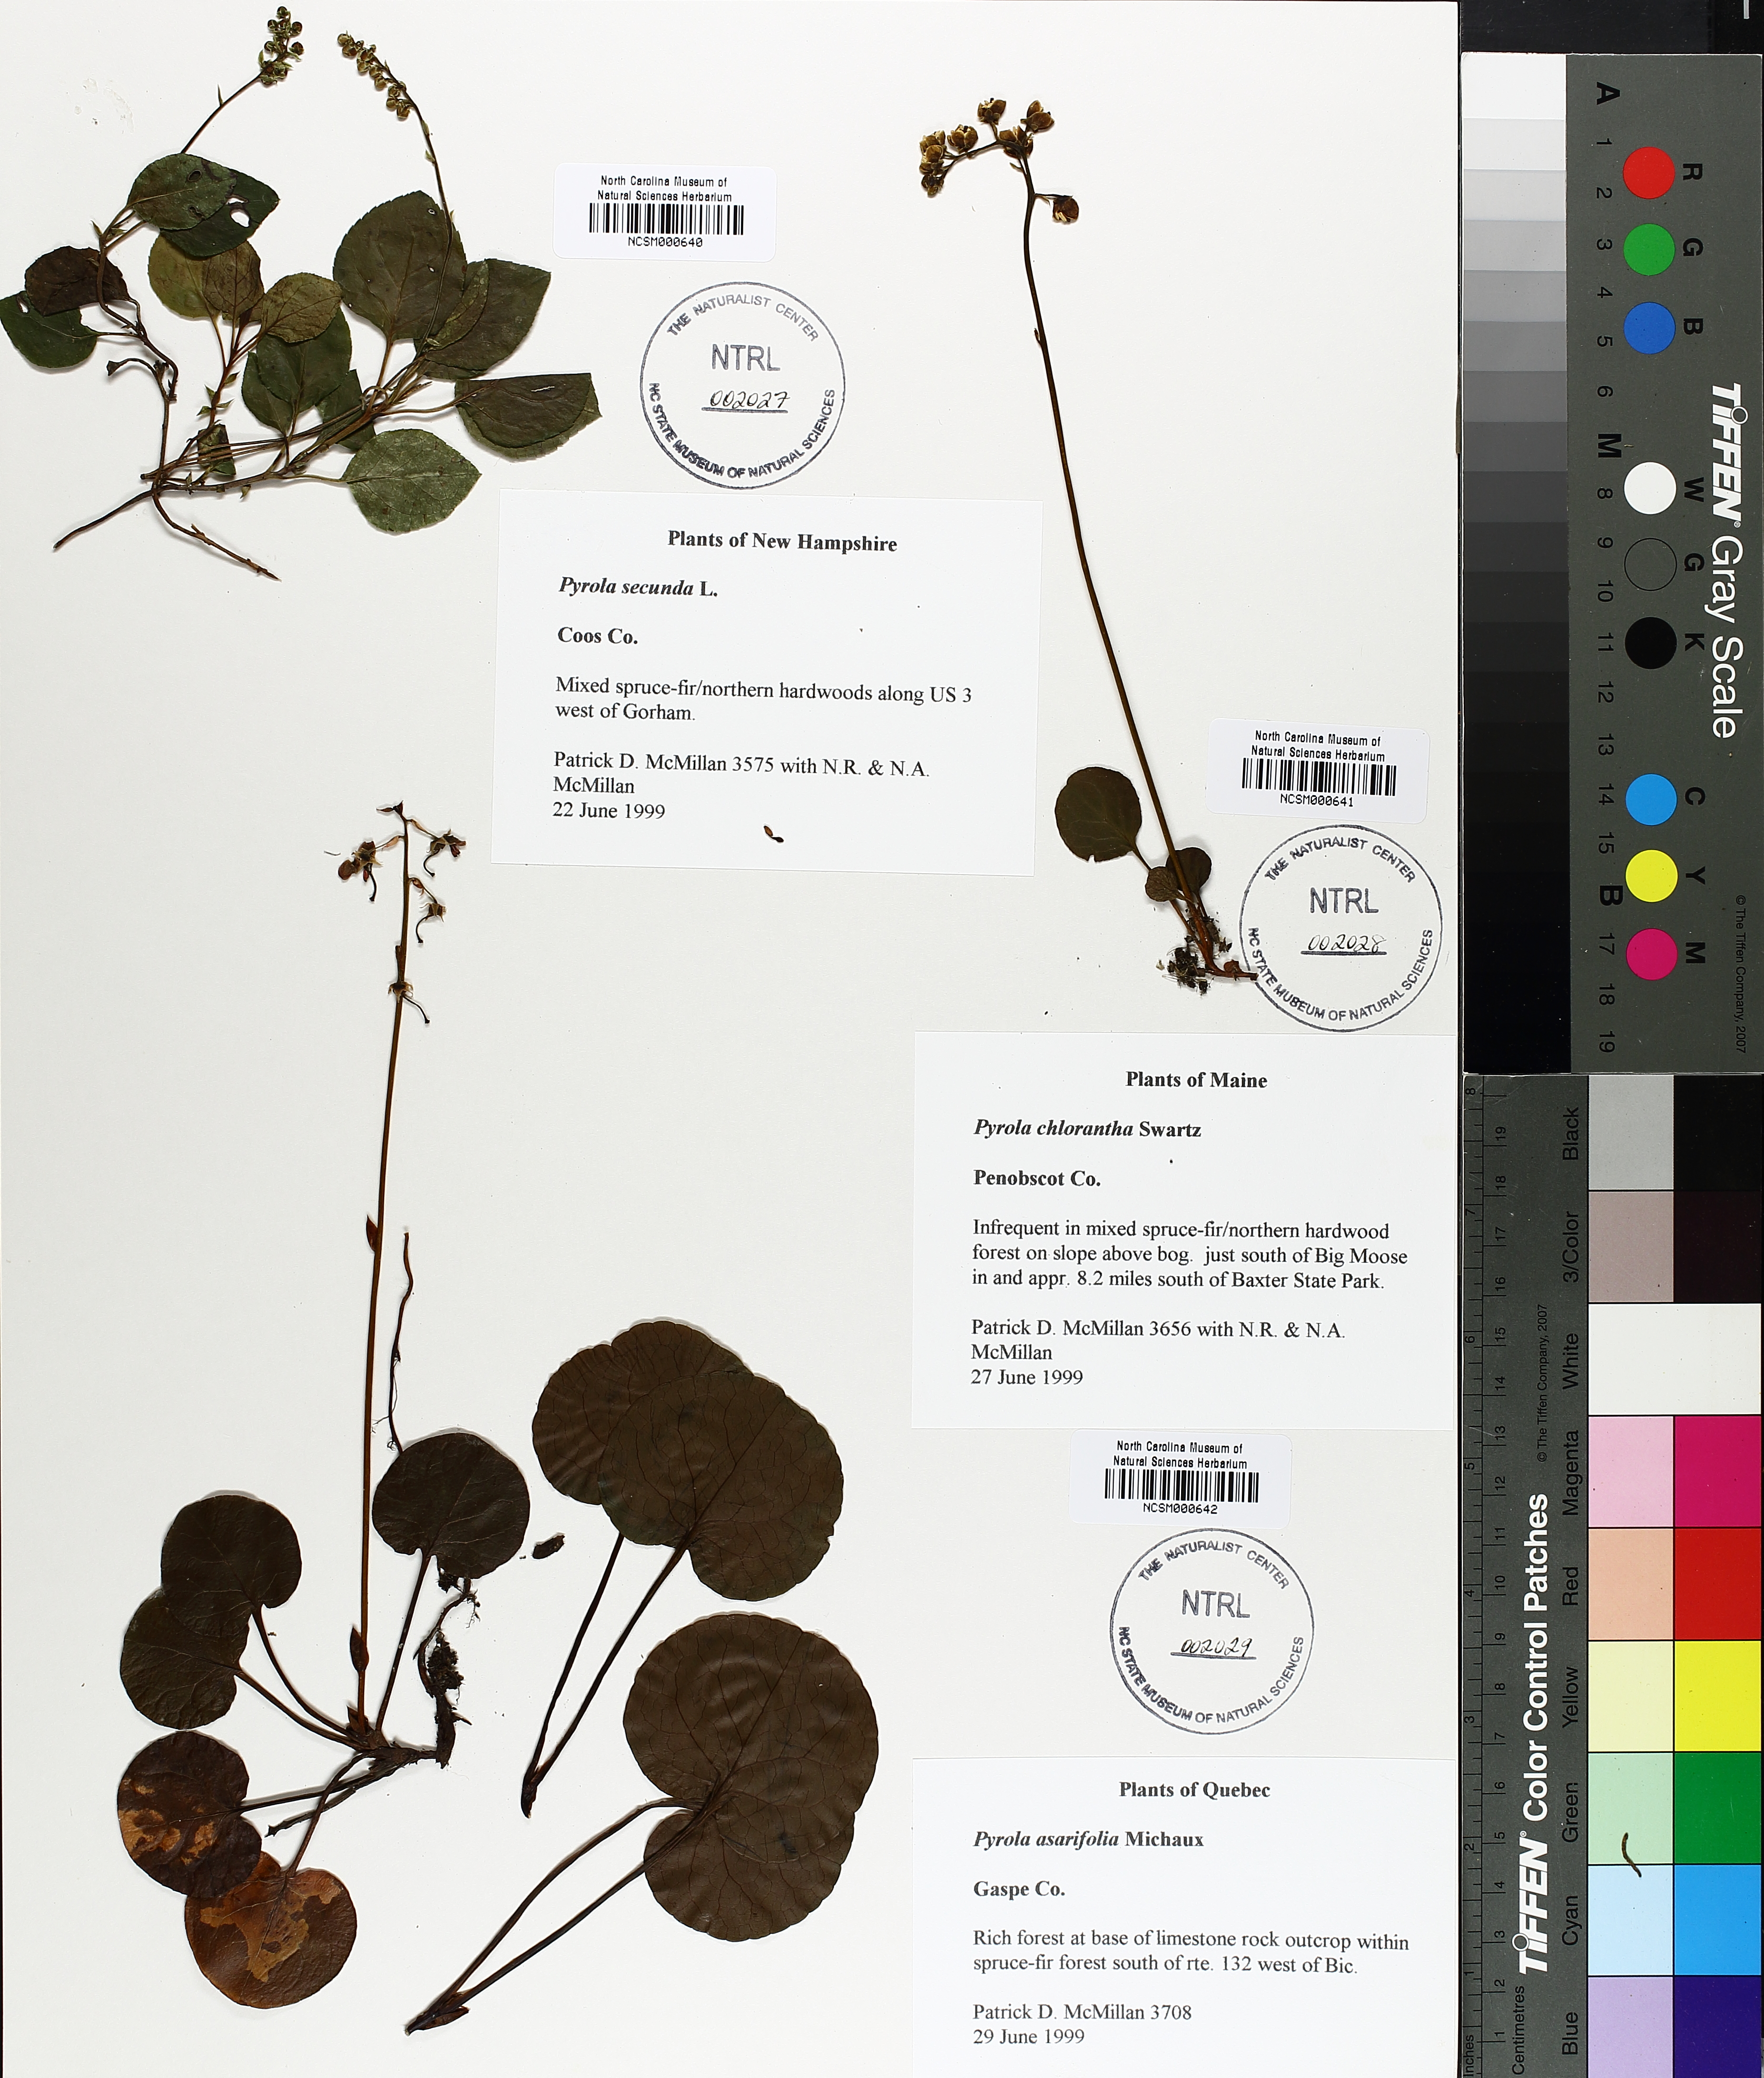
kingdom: Plantae
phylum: Tracheophyta
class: Magnoliopsida
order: Ericales
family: Ericaceae
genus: Orthilia
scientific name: Orthilia secunda
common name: One-sided orthilia
